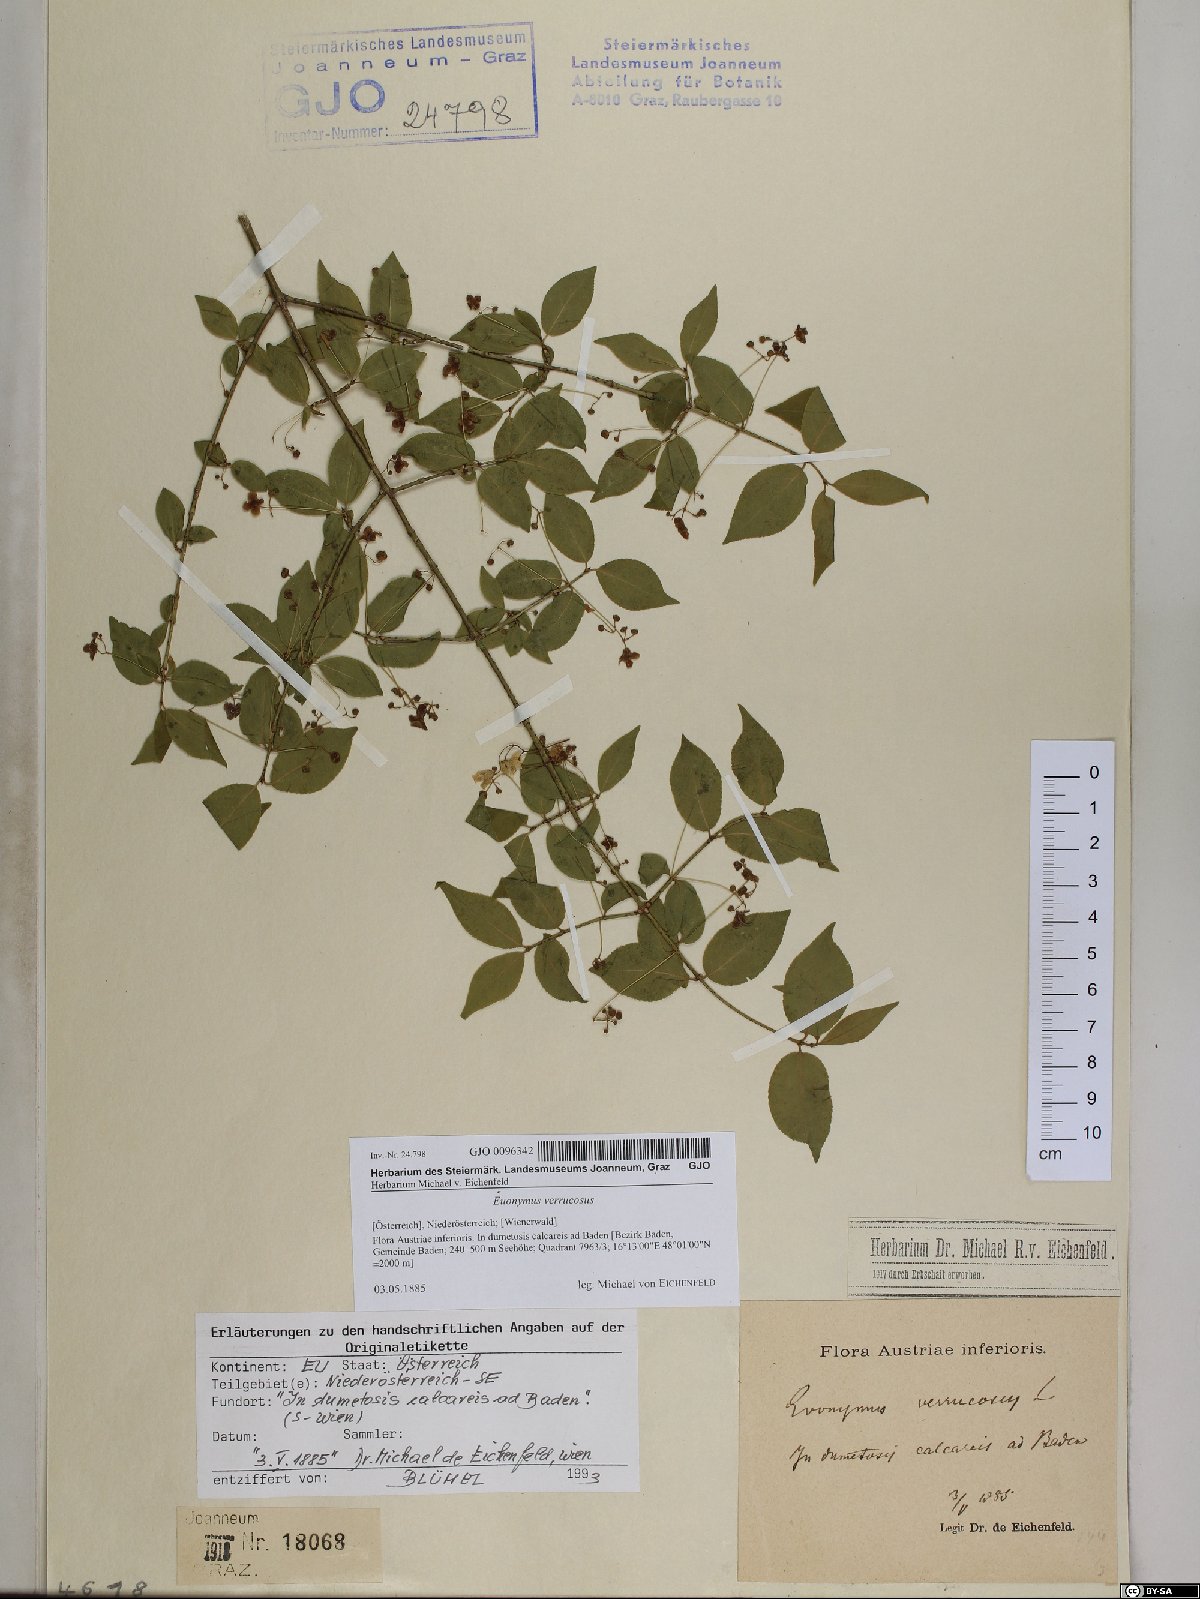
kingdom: Plantae
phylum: Tracheophyta
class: Magnoliopsida
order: Celastrales
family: Celastraceae
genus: Euonymus
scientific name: Euonymus verrucosus
